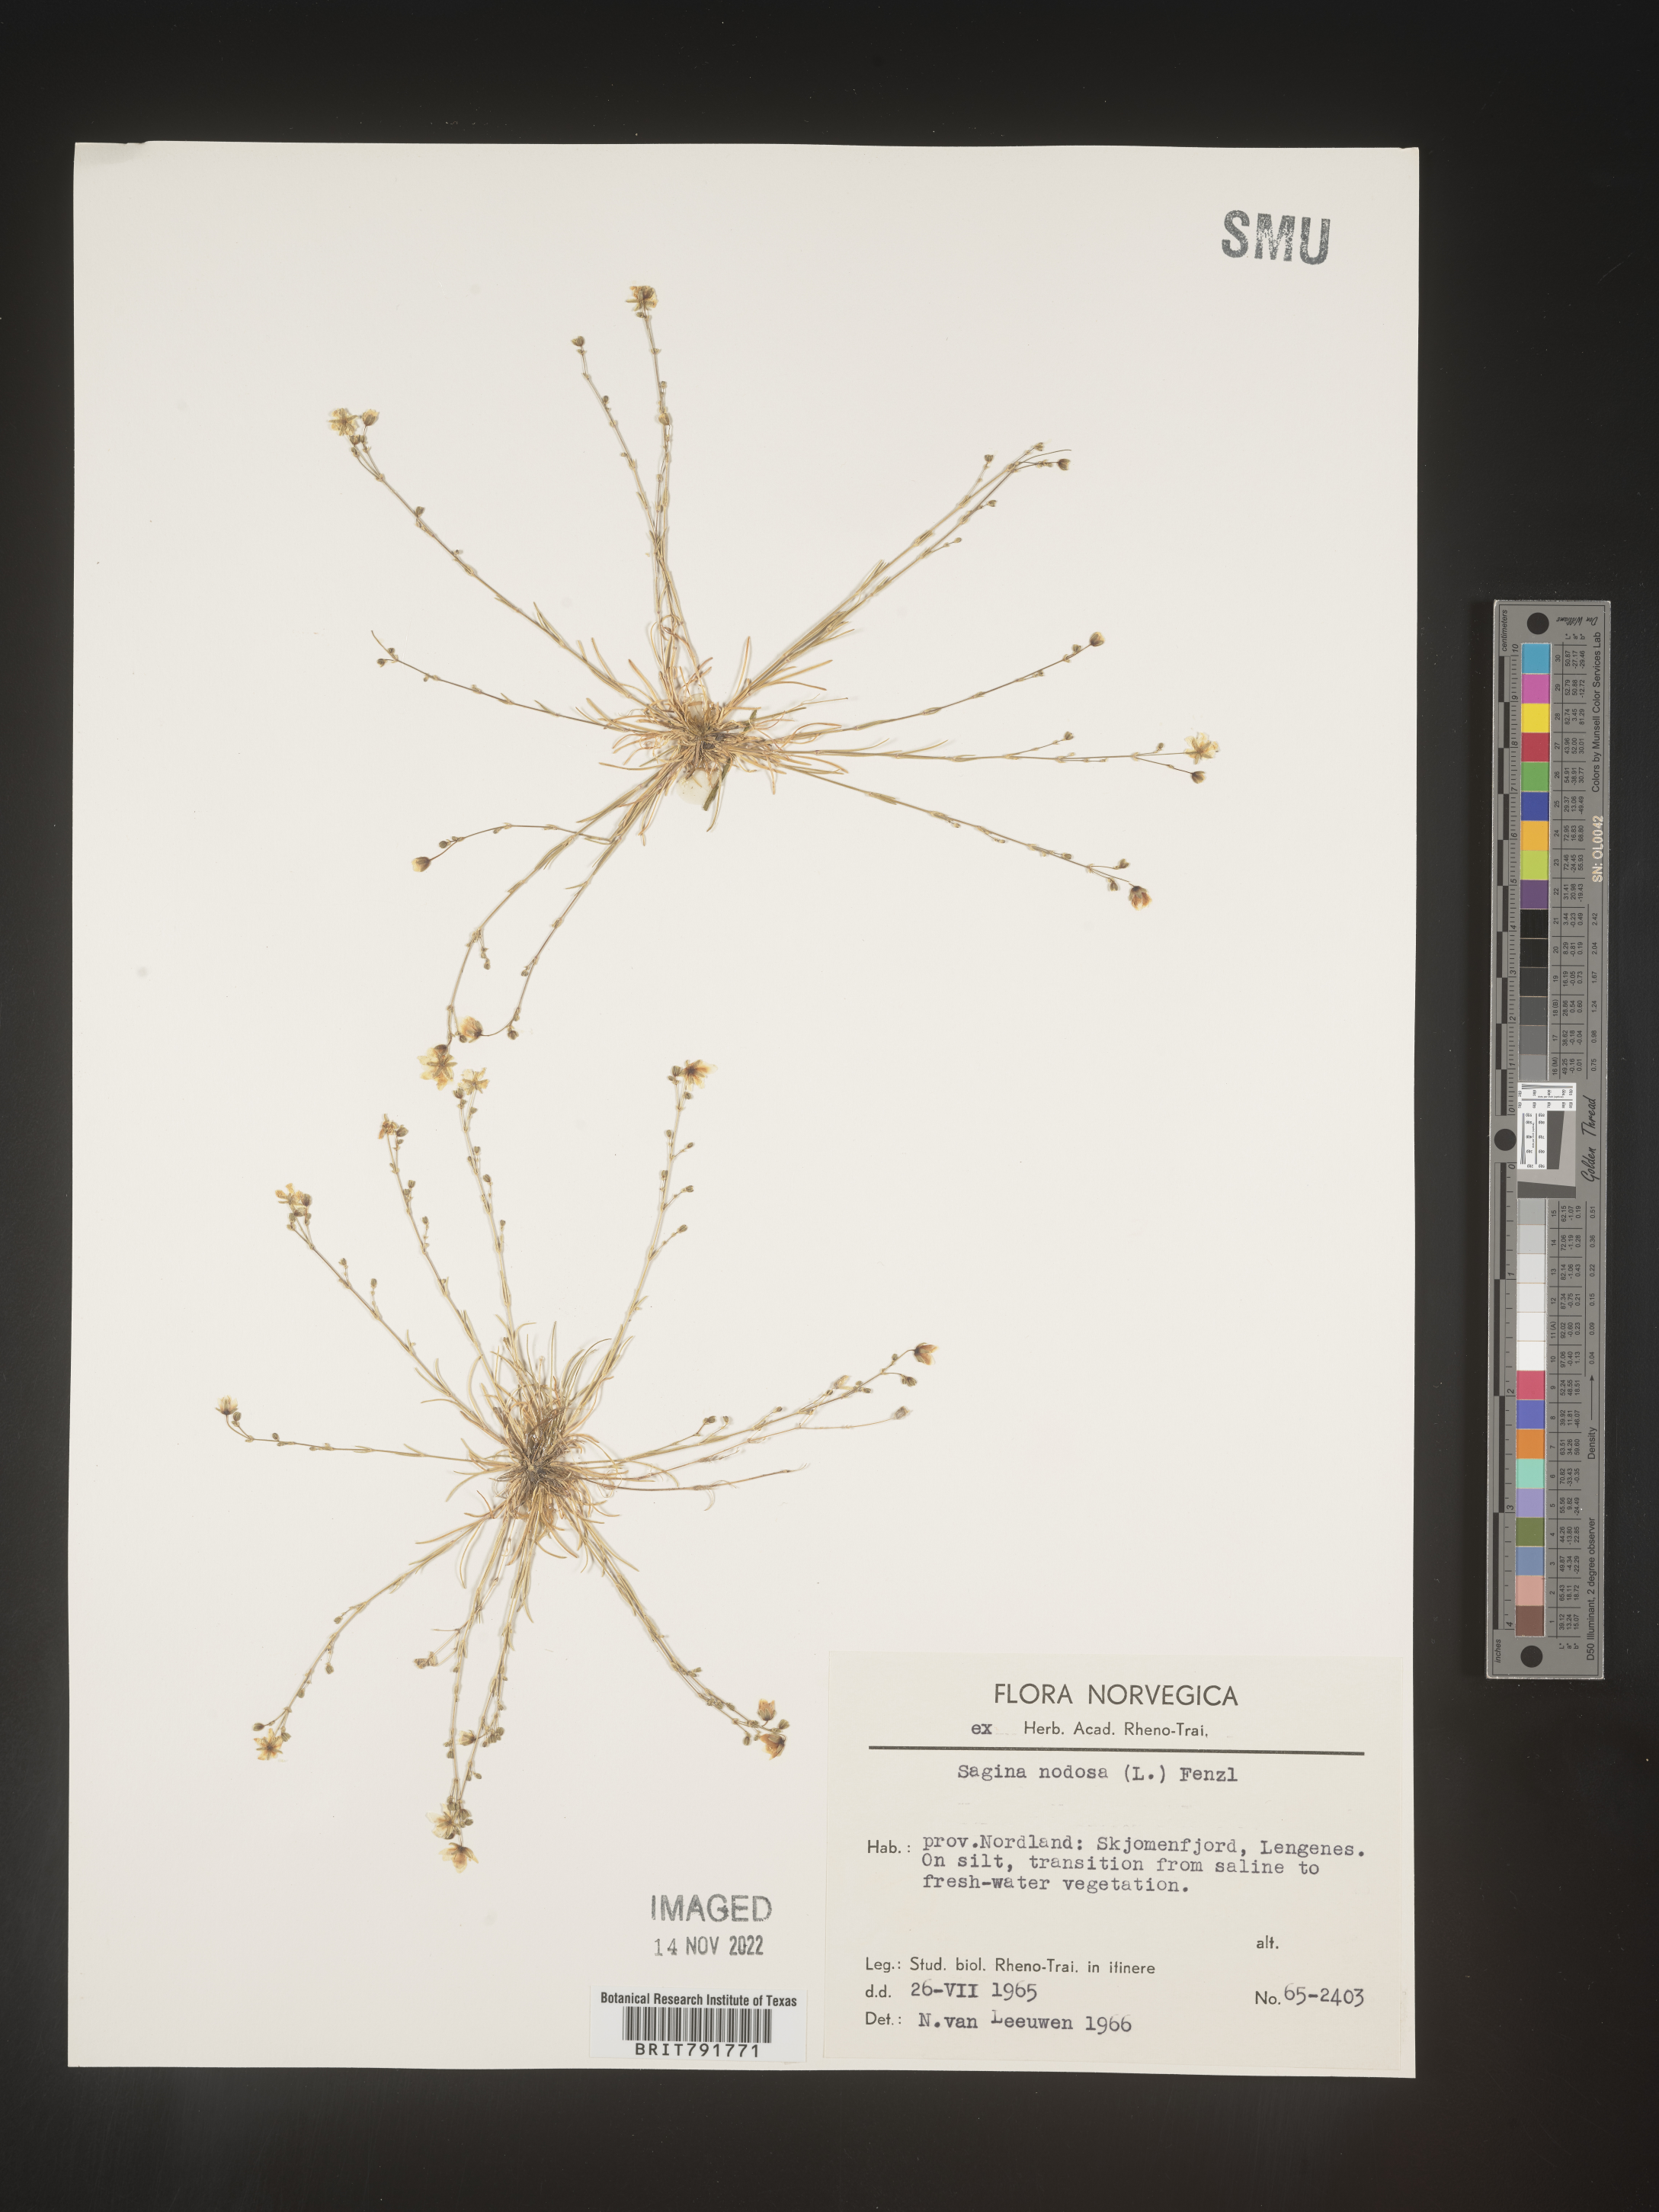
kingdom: Plantae
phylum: Tracheophyta
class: Magnoliopsida
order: Caryophyllales
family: Caryophyllaceae
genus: Sagina
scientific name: Sagina
